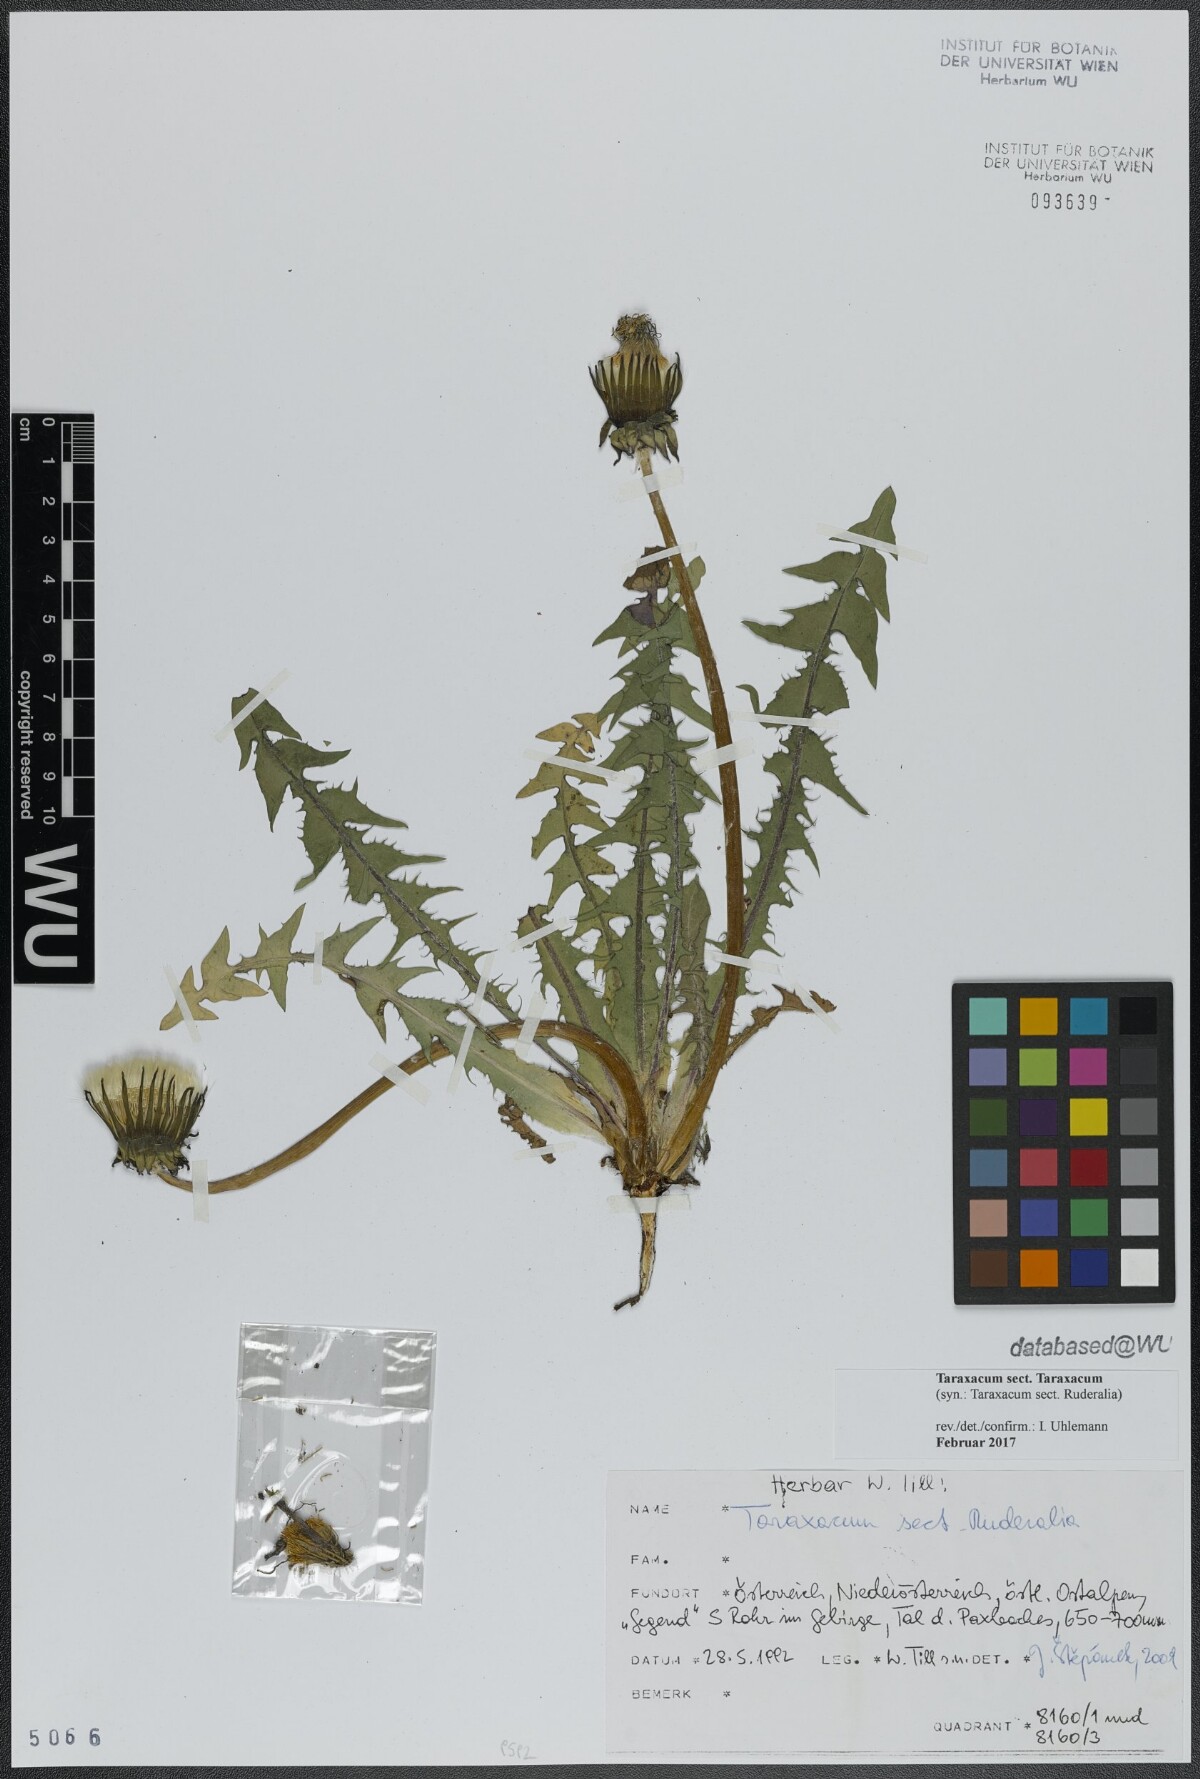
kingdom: Plantae
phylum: Tracheophyta
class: Magnoliopsida
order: Asterales
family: Asteraceae
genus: Taraxacum
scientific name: Taraxacum
